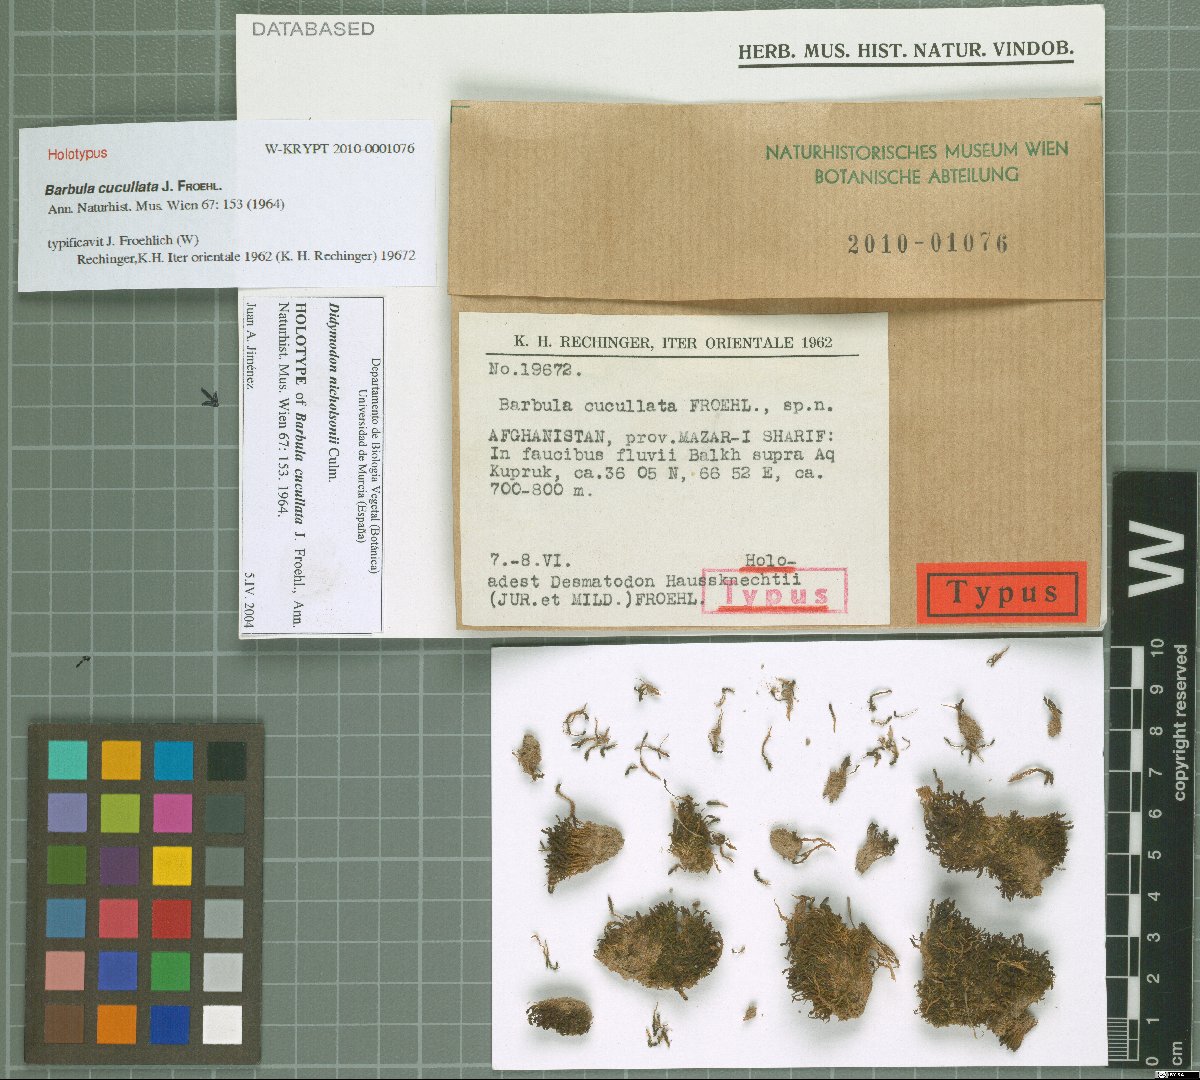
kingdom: Plantae
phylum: Bryophyta
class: Bryopsida
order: Pottiales
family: Pottiaceae
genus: Vinealobryum
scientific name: Vinealobryum nicholsonii
